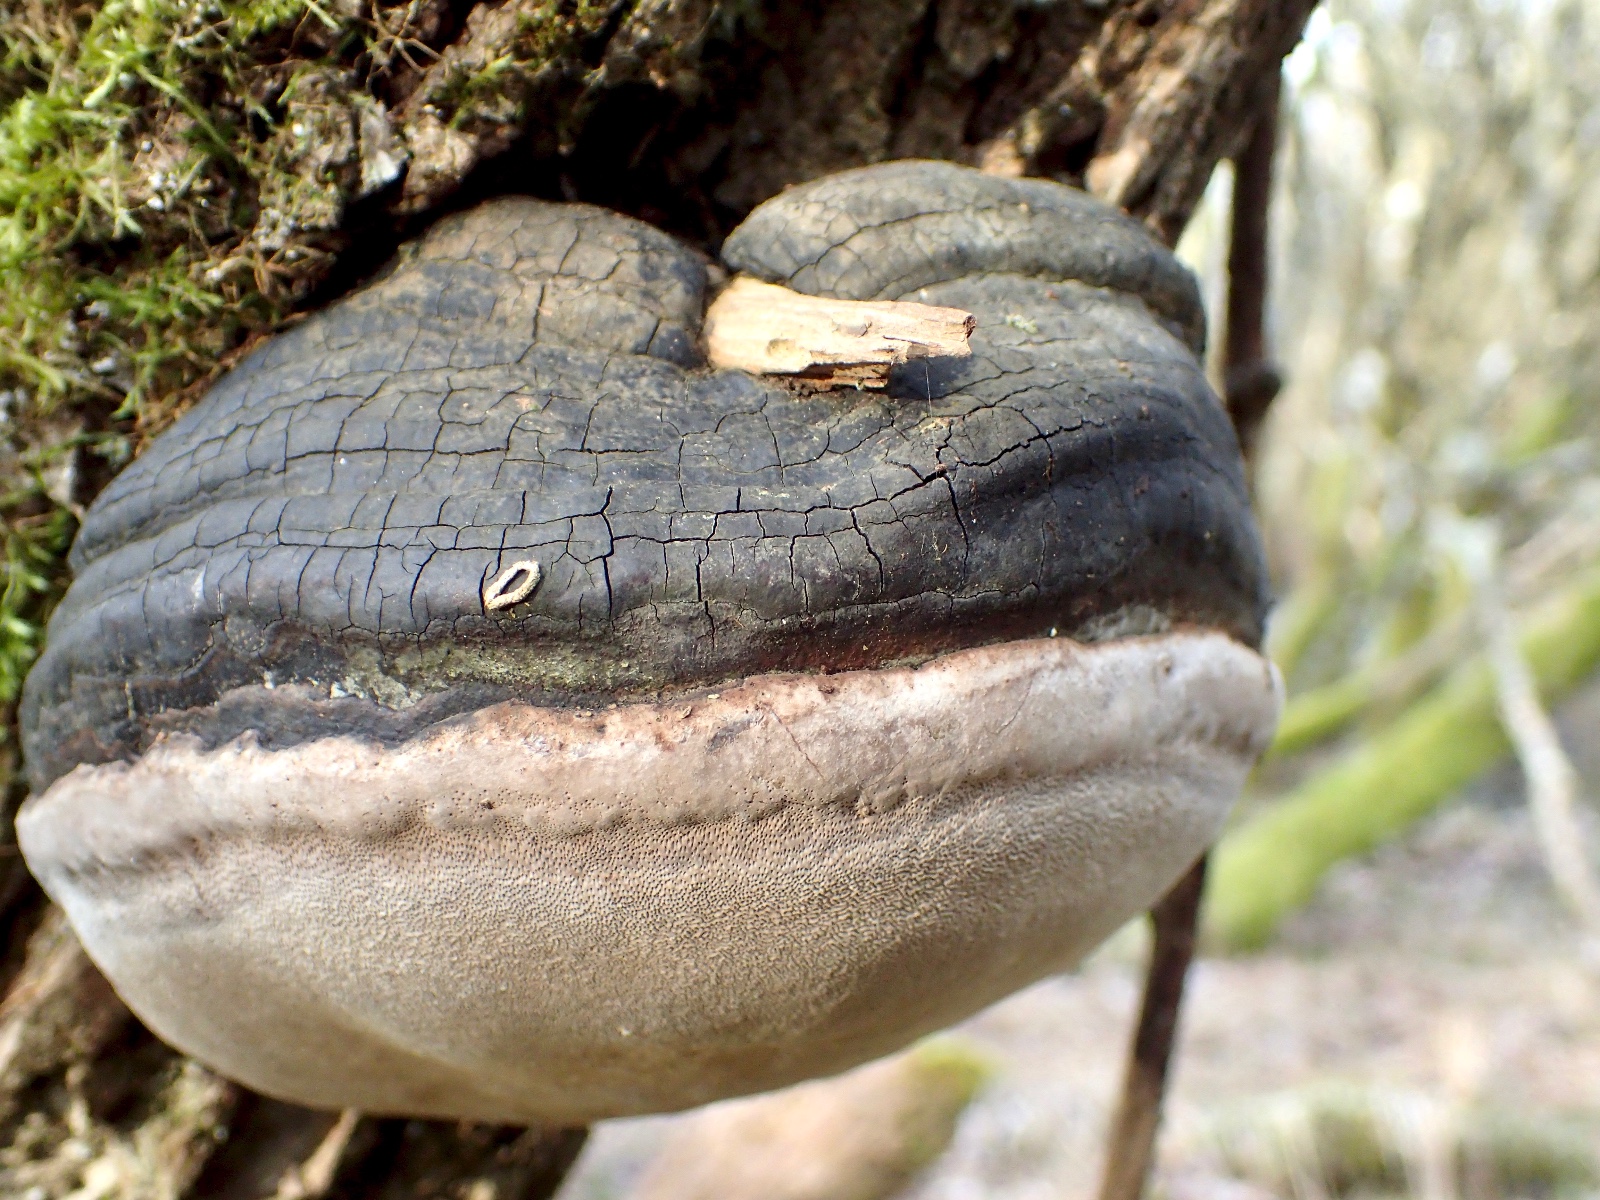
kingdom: Fungi
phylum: Basidiomycota
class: Agaricomycetes
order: Hymenochaetales
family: Hymenochaetaceae
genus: Phellinus
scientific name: Phellinus igniarius
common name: almindelig ildporesvamp
